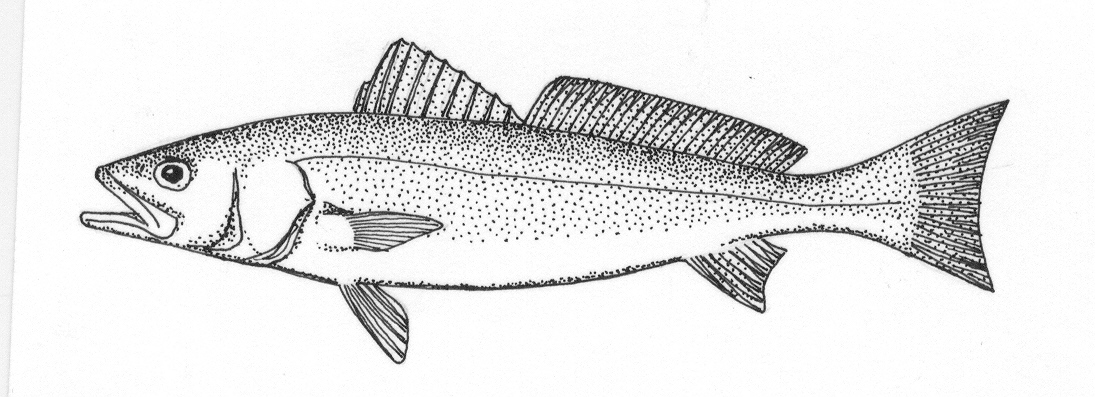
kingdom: Animalia
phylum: Chordata
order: Perciformes
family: Sciaenidae
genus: Atractoscion
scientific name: Atractoscion aequidens
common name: Geelbeck croaker
